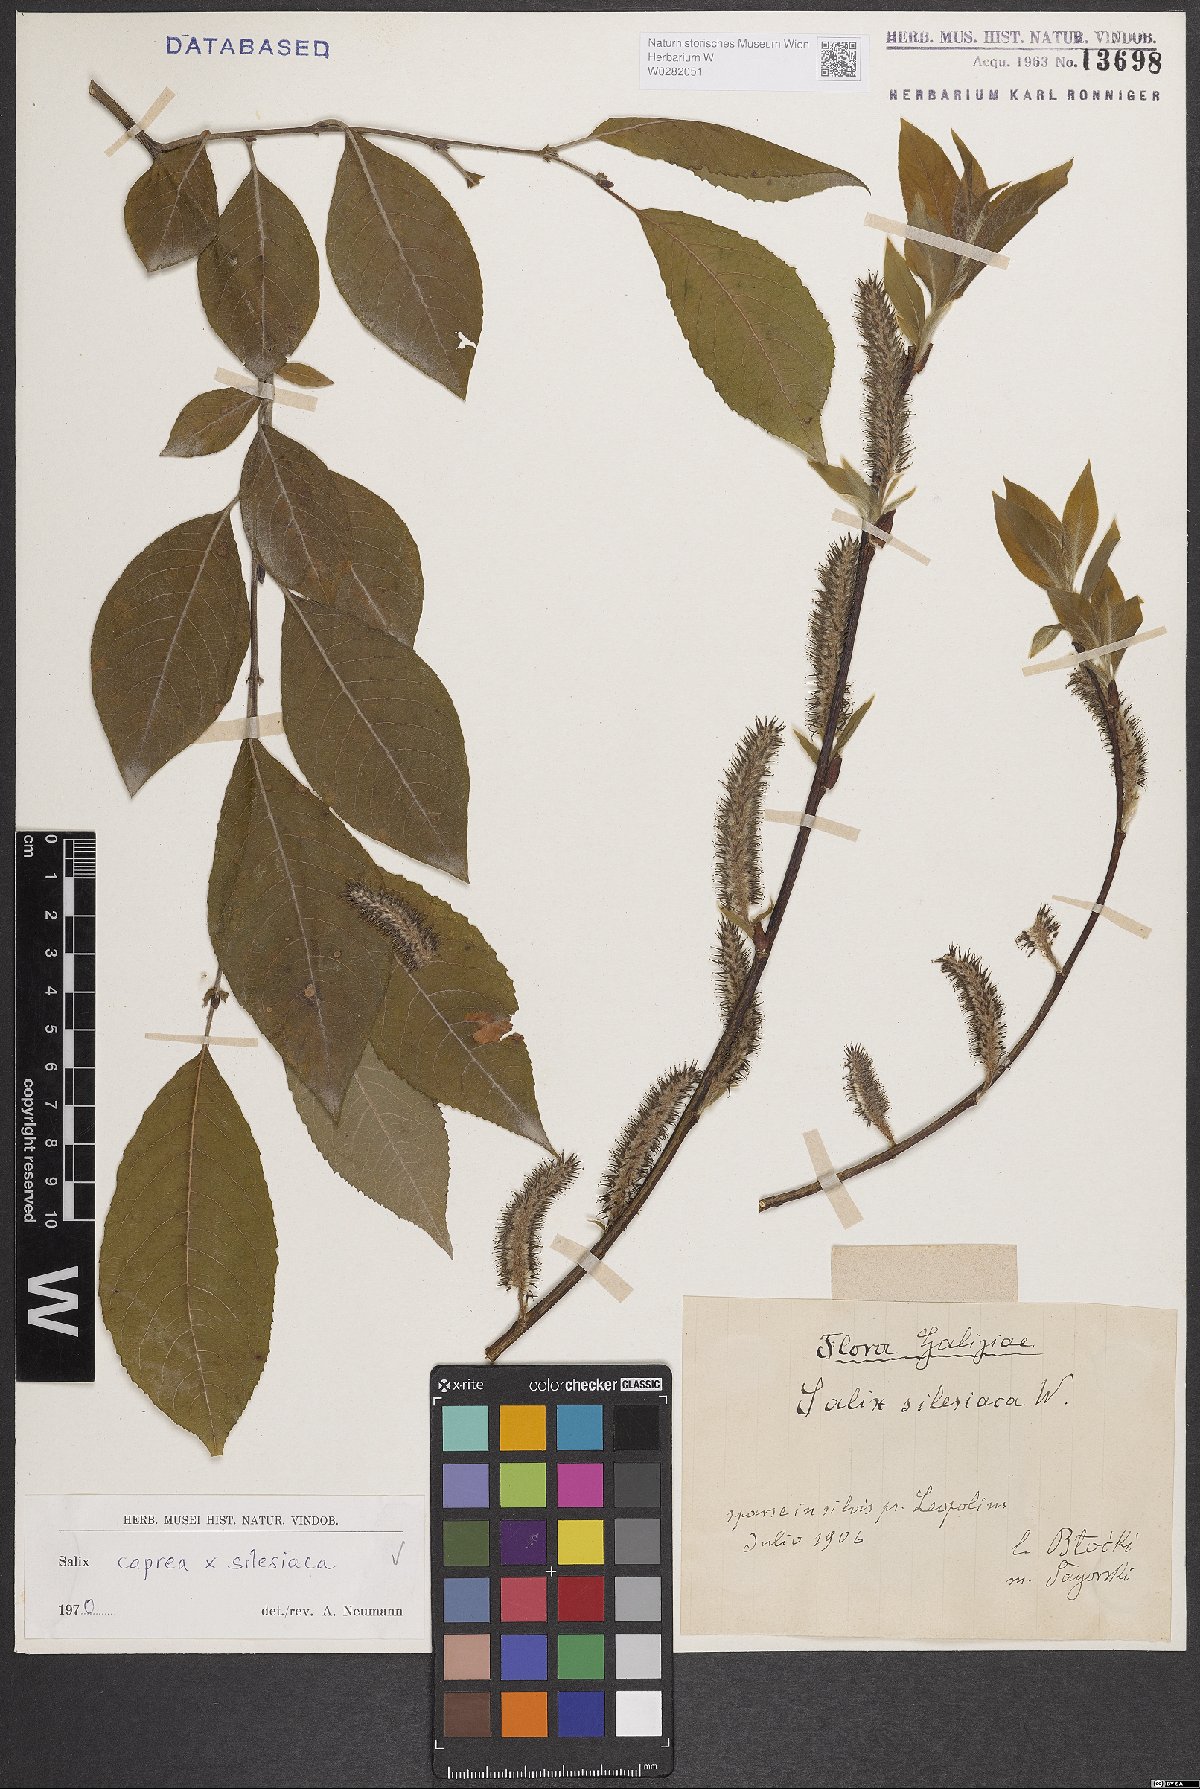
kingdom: Plantae
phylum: Tracheophyta
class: Magnoliopsida
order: Malpighiales
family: Salicaceae
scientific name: Salicaceae
